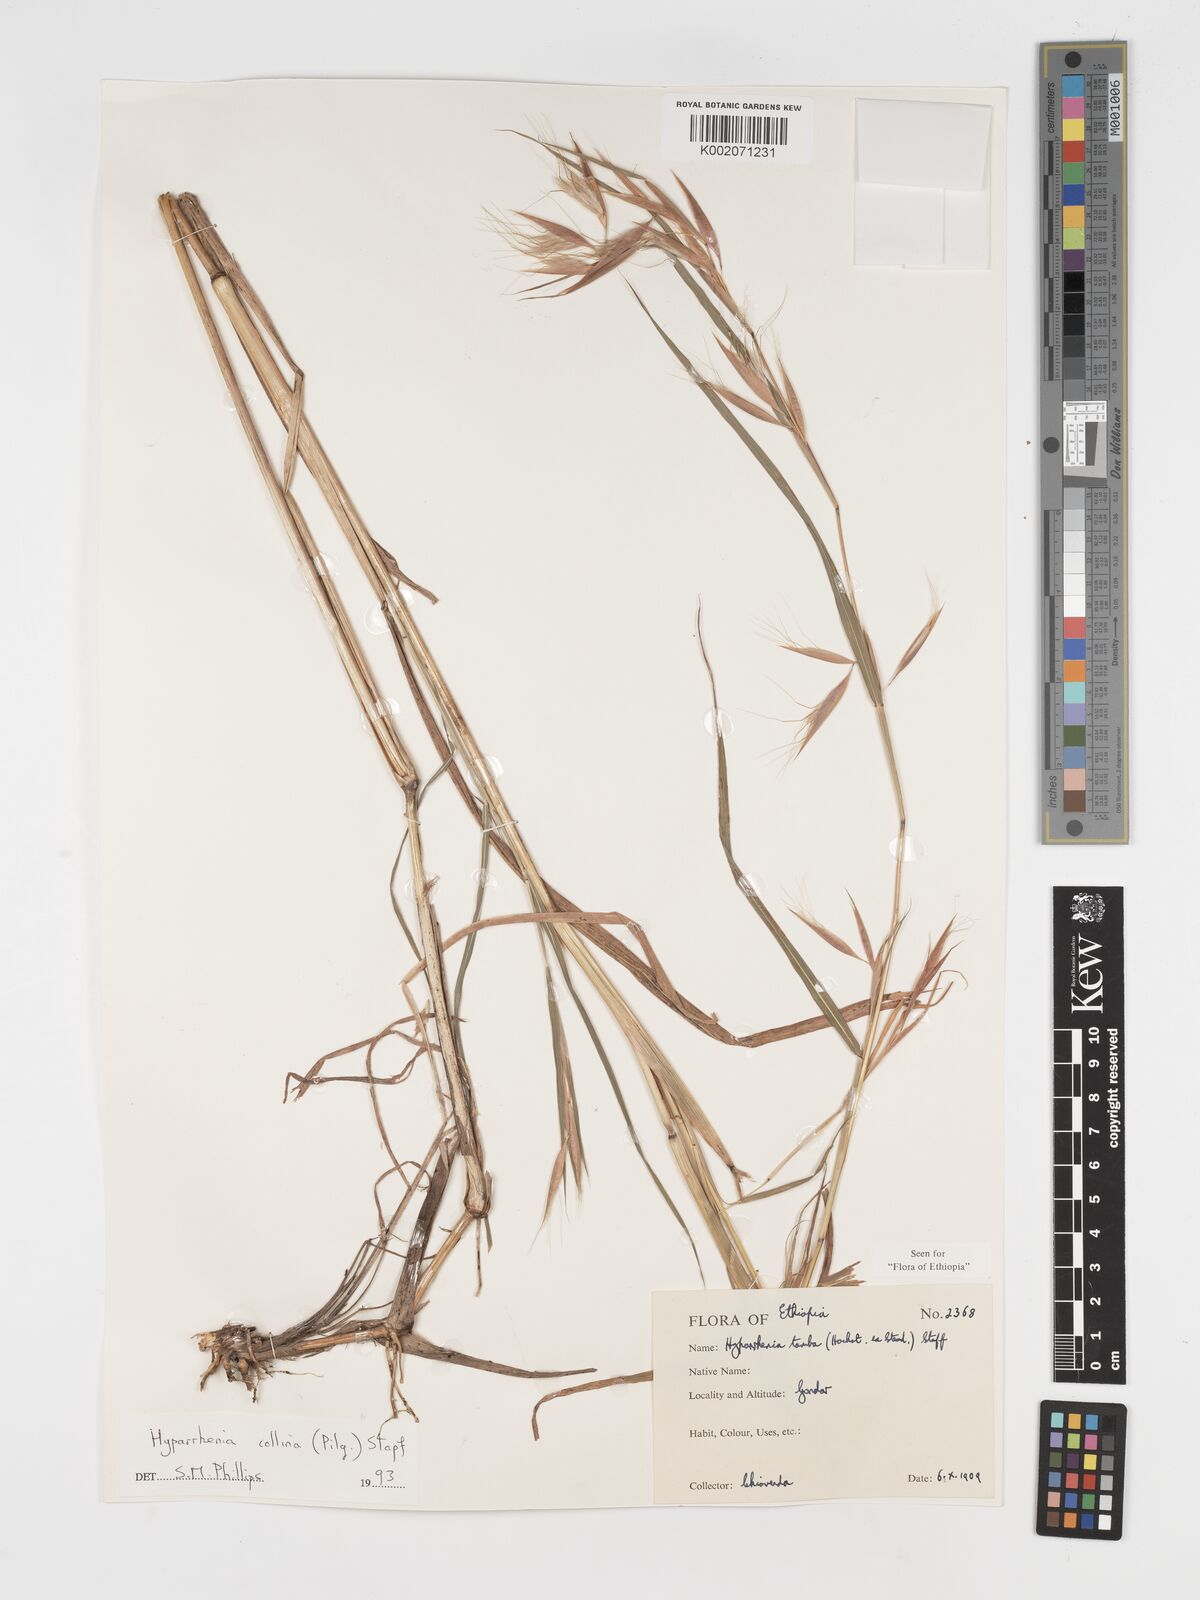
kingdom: Plantae
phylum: Tracheophyta
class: Liliopsida
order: Poales
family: Poaceae
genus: Hyparrhenia
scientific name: Hyparrhenia collina
